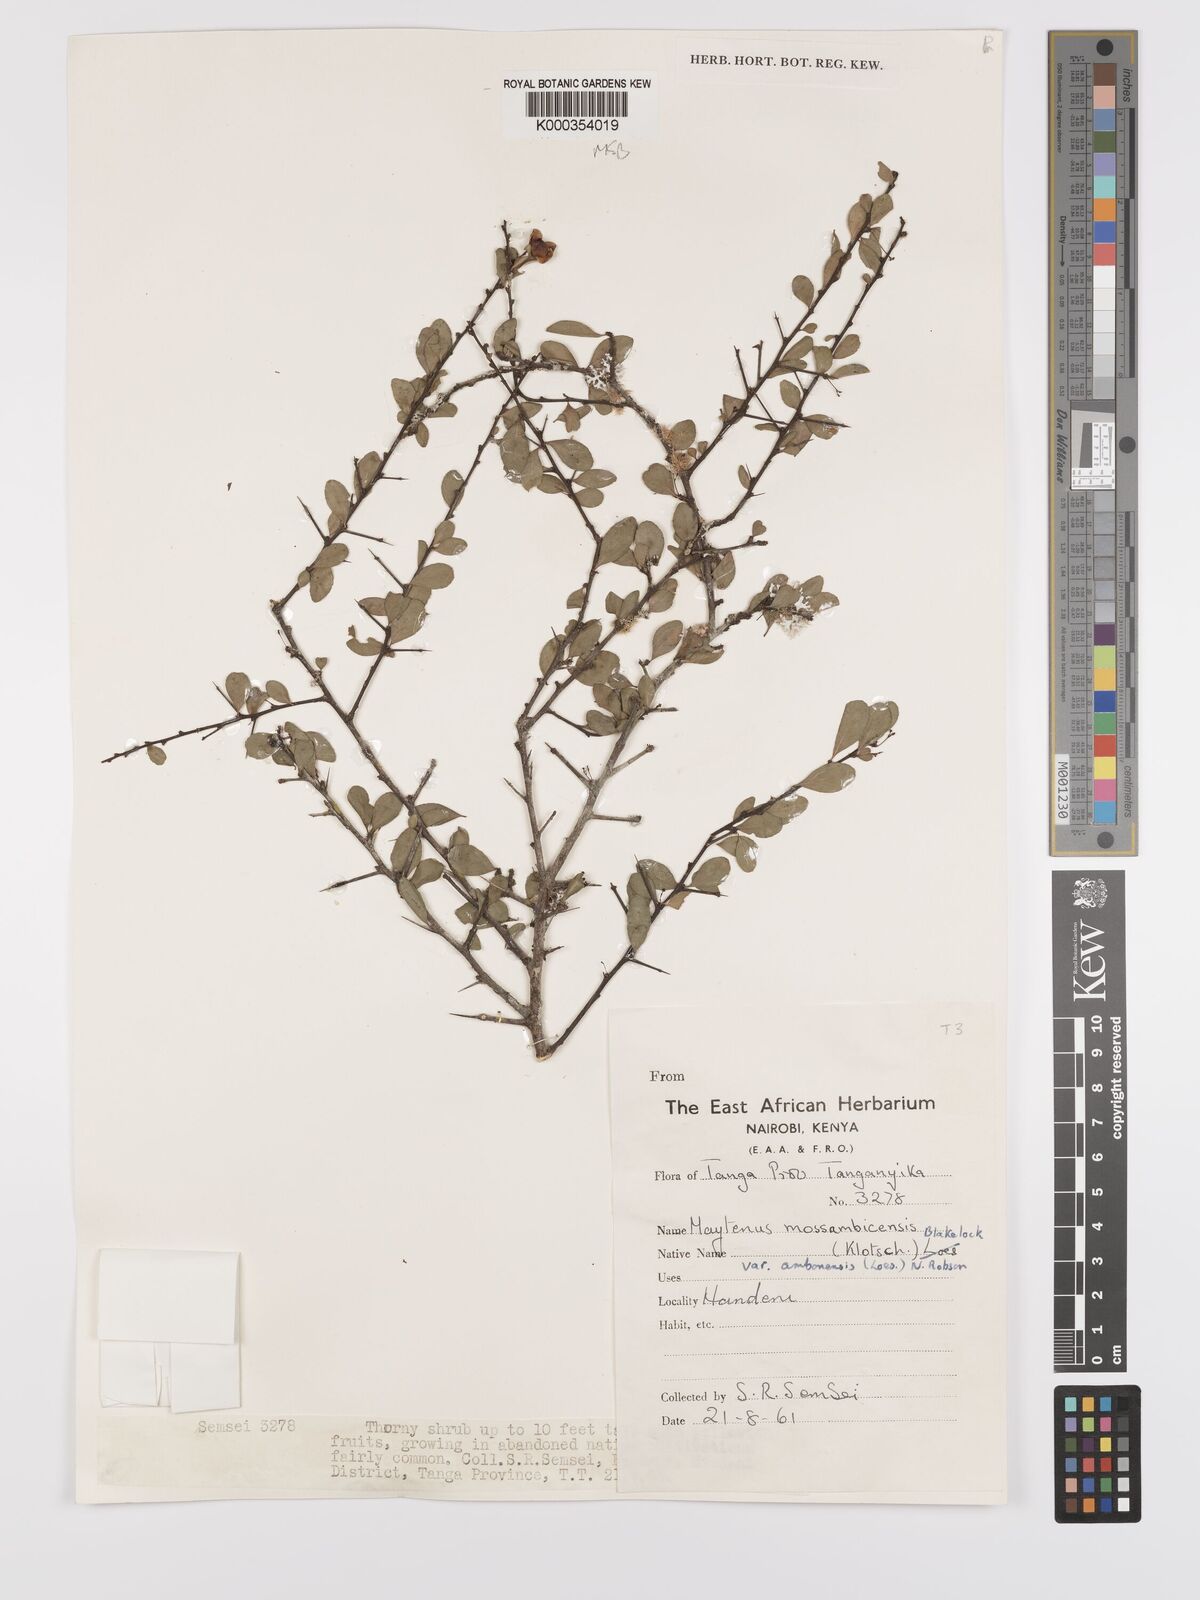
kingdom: Plantae
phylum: Tracheophyta
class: Magnoliopsida
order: Celastrales
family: Celastraceae
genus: Gymnosporia
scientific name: Gymnosporia mossambicensis
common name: Black forest spike-thorn
